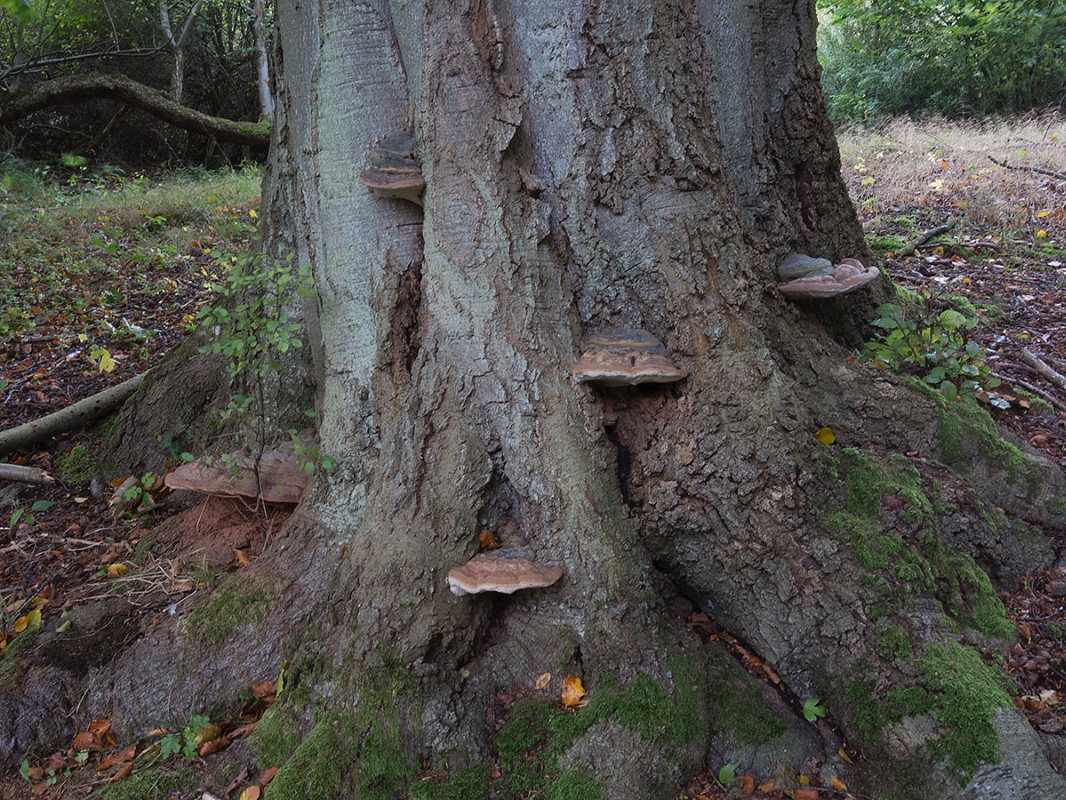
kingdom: Fungi
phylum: Basidiomycota
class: Agaricomycetes
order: Polyporales
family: Polyporaceae
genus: Ganoderma
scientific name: Ganoderma pfeifferi
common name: kobberrød lakporesvamp
